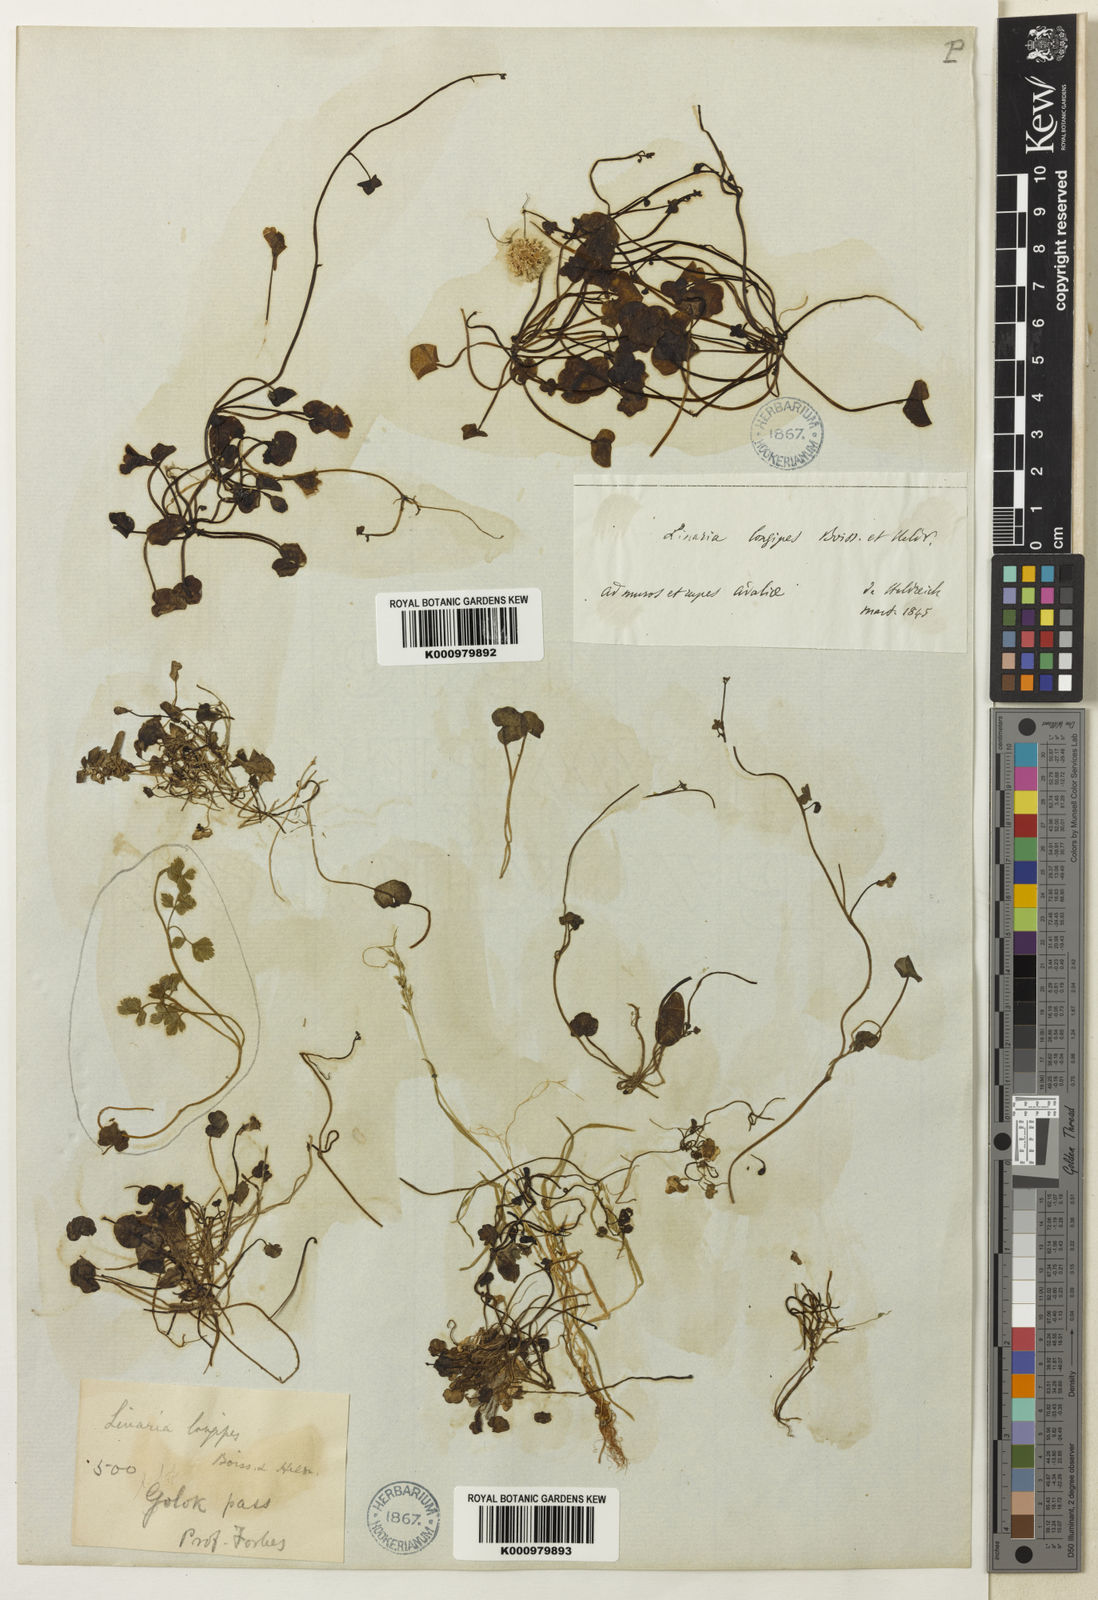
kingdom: Plantae
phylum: Tracheophyta
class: Magnoliopsida
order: Lamiales
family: Plantaginaceae
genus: Cymbalaria
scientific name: Cymbalaria longipes
